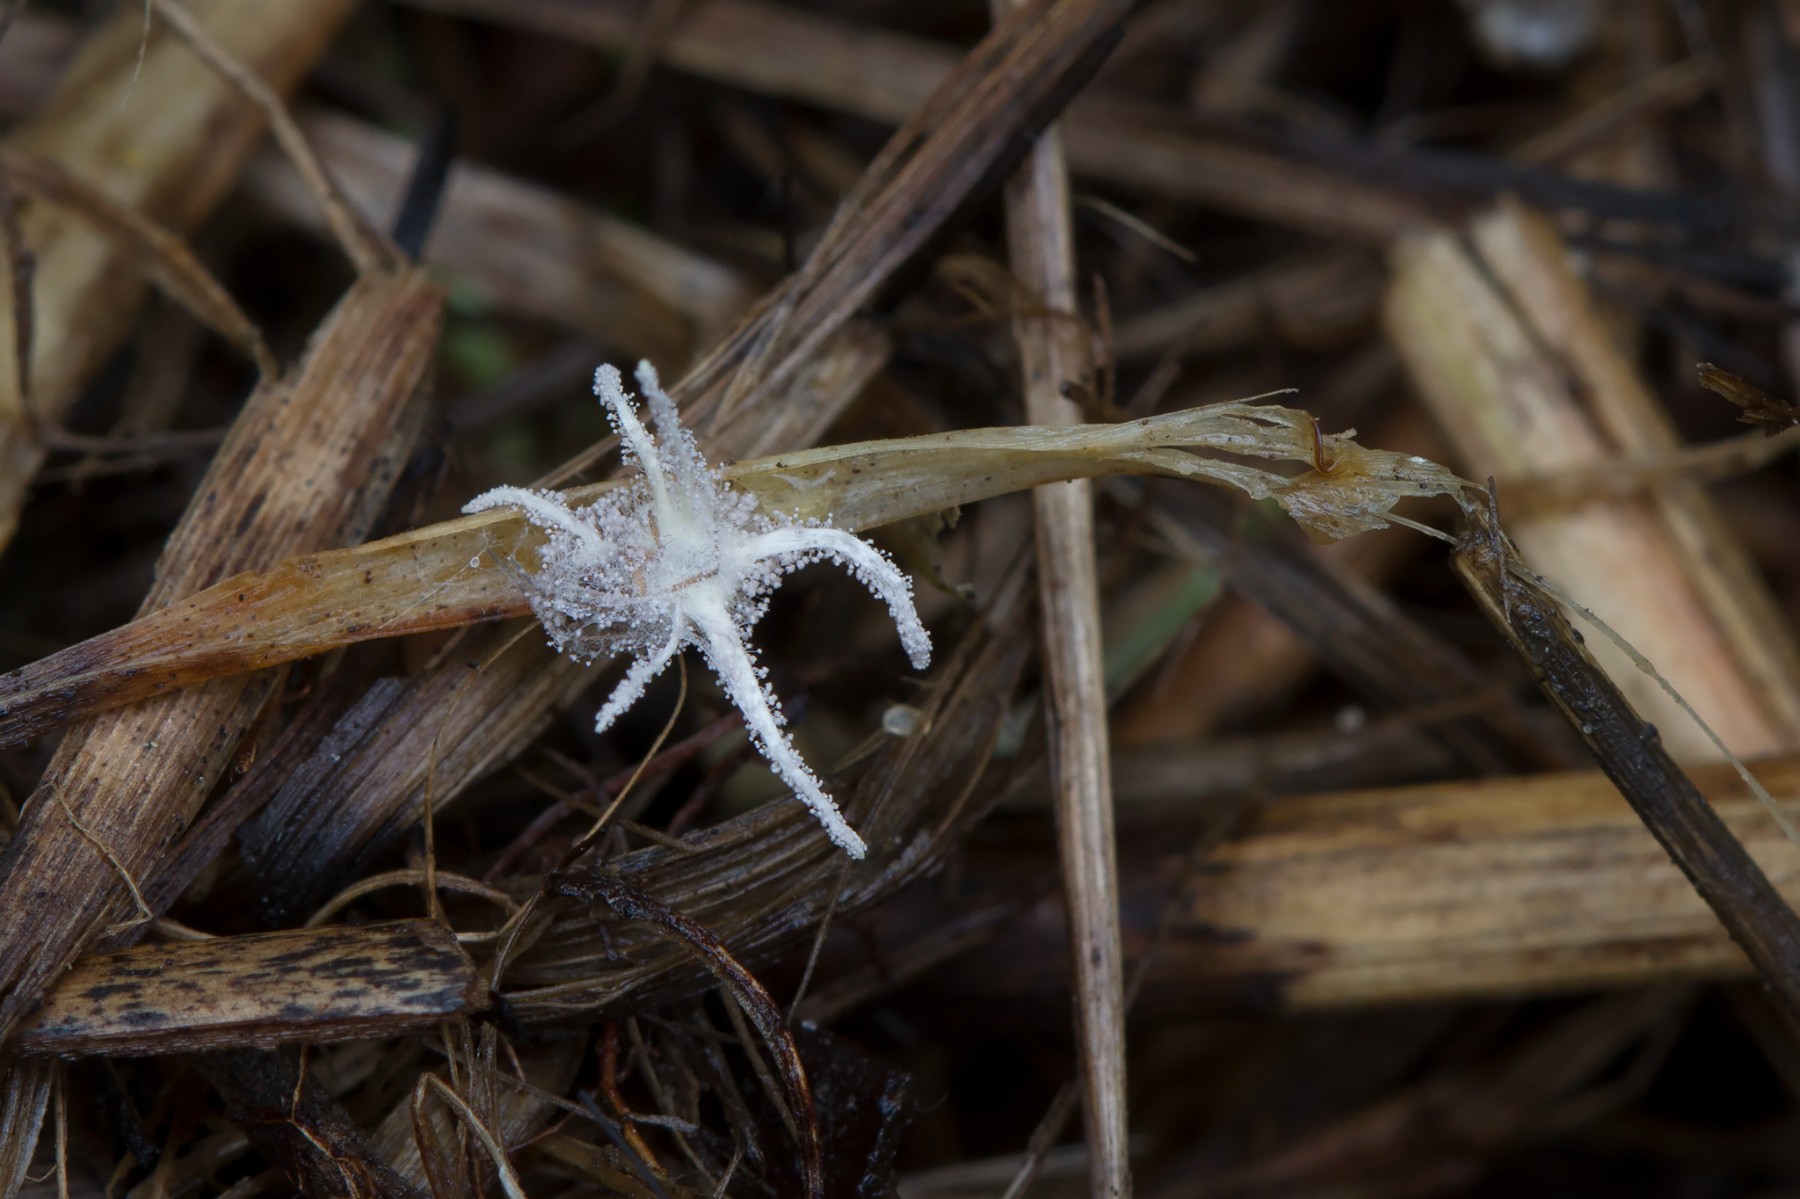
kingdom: Fungi
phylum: Ascomycota
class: Sordariomycetes
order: Hypocreales
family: Cordycipitaceae
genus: Gibellula
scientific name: Gibellula pulchra
